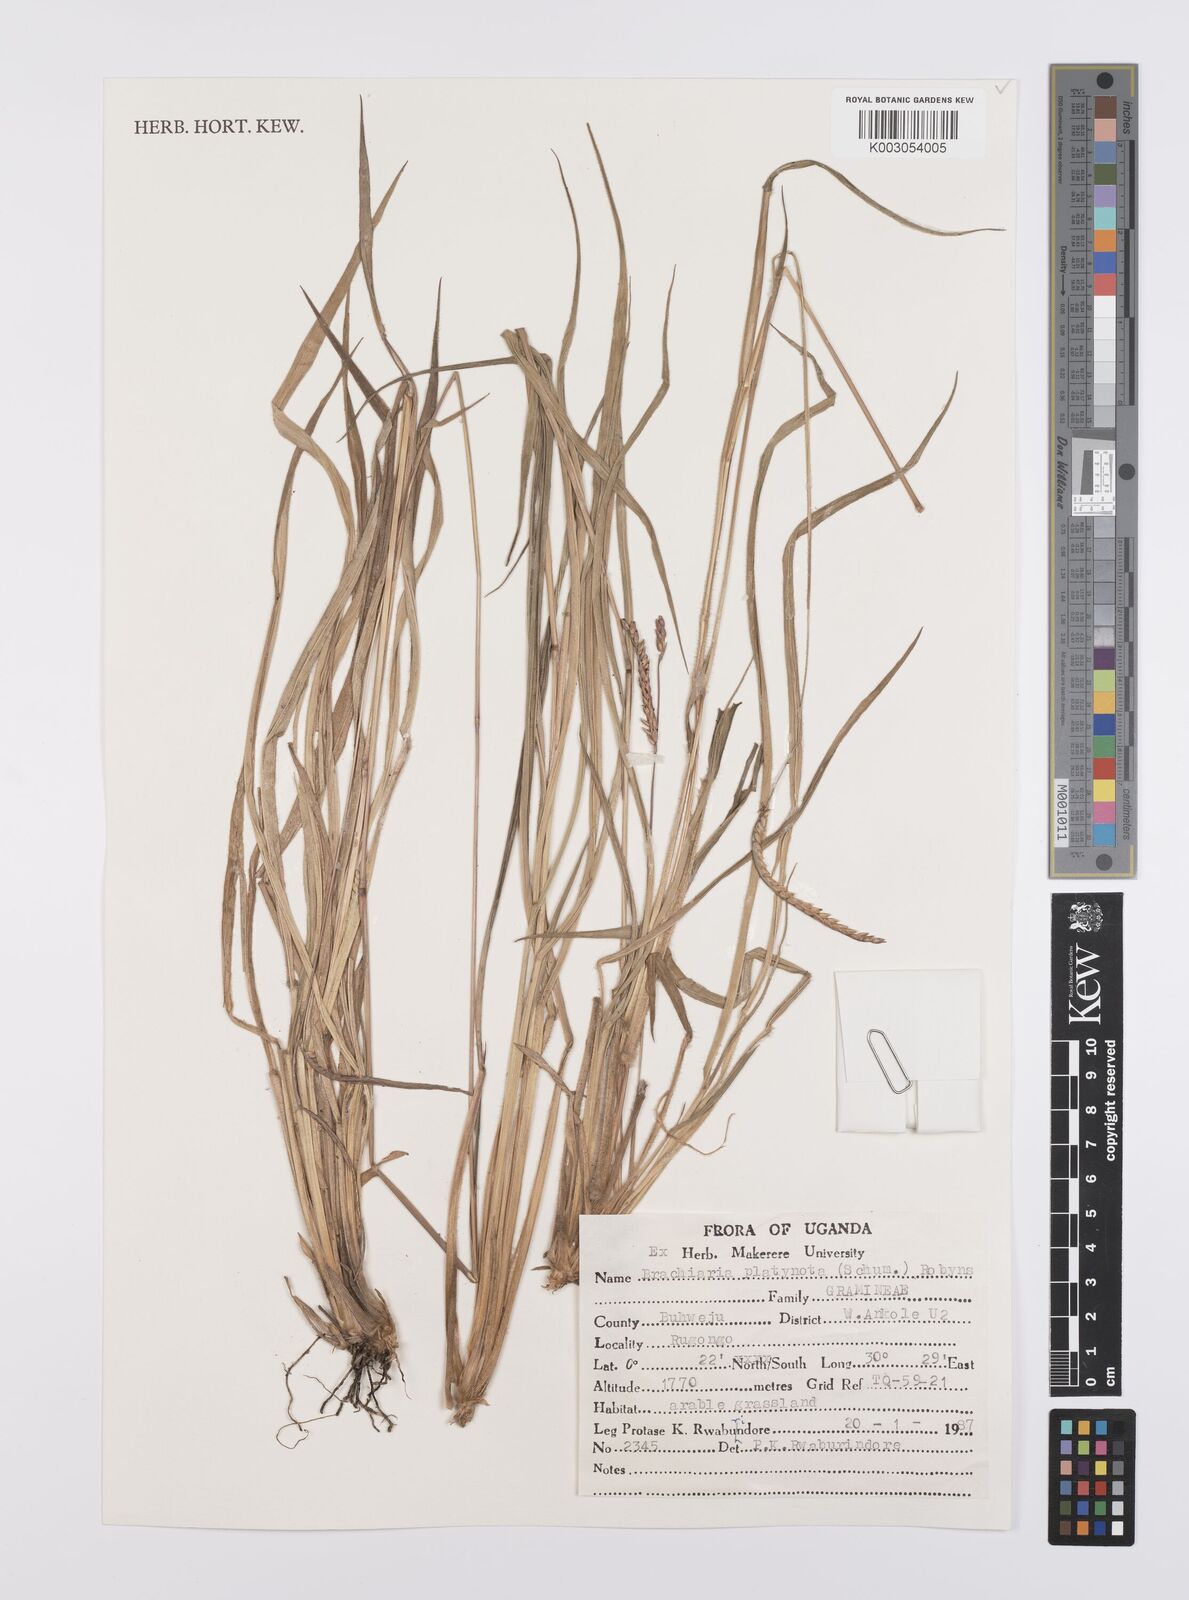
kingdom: Plantae
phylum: Tracheophyta
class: Liliopsida
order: Poales
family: Poaceae
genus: Urochloa
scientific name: Urochloa platynota
